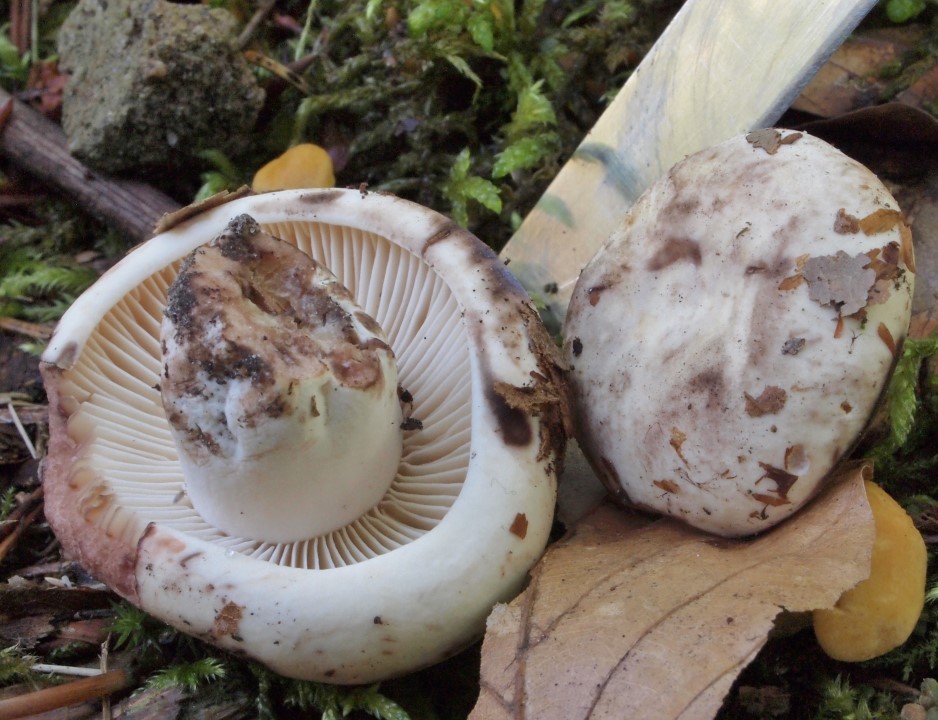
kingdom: Fungi
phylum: Basidiomycota
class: Agaricomycetes
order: Russulales
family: Russulaceae
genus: Russula
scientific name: Russula adusta
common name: sværtende skørhat
